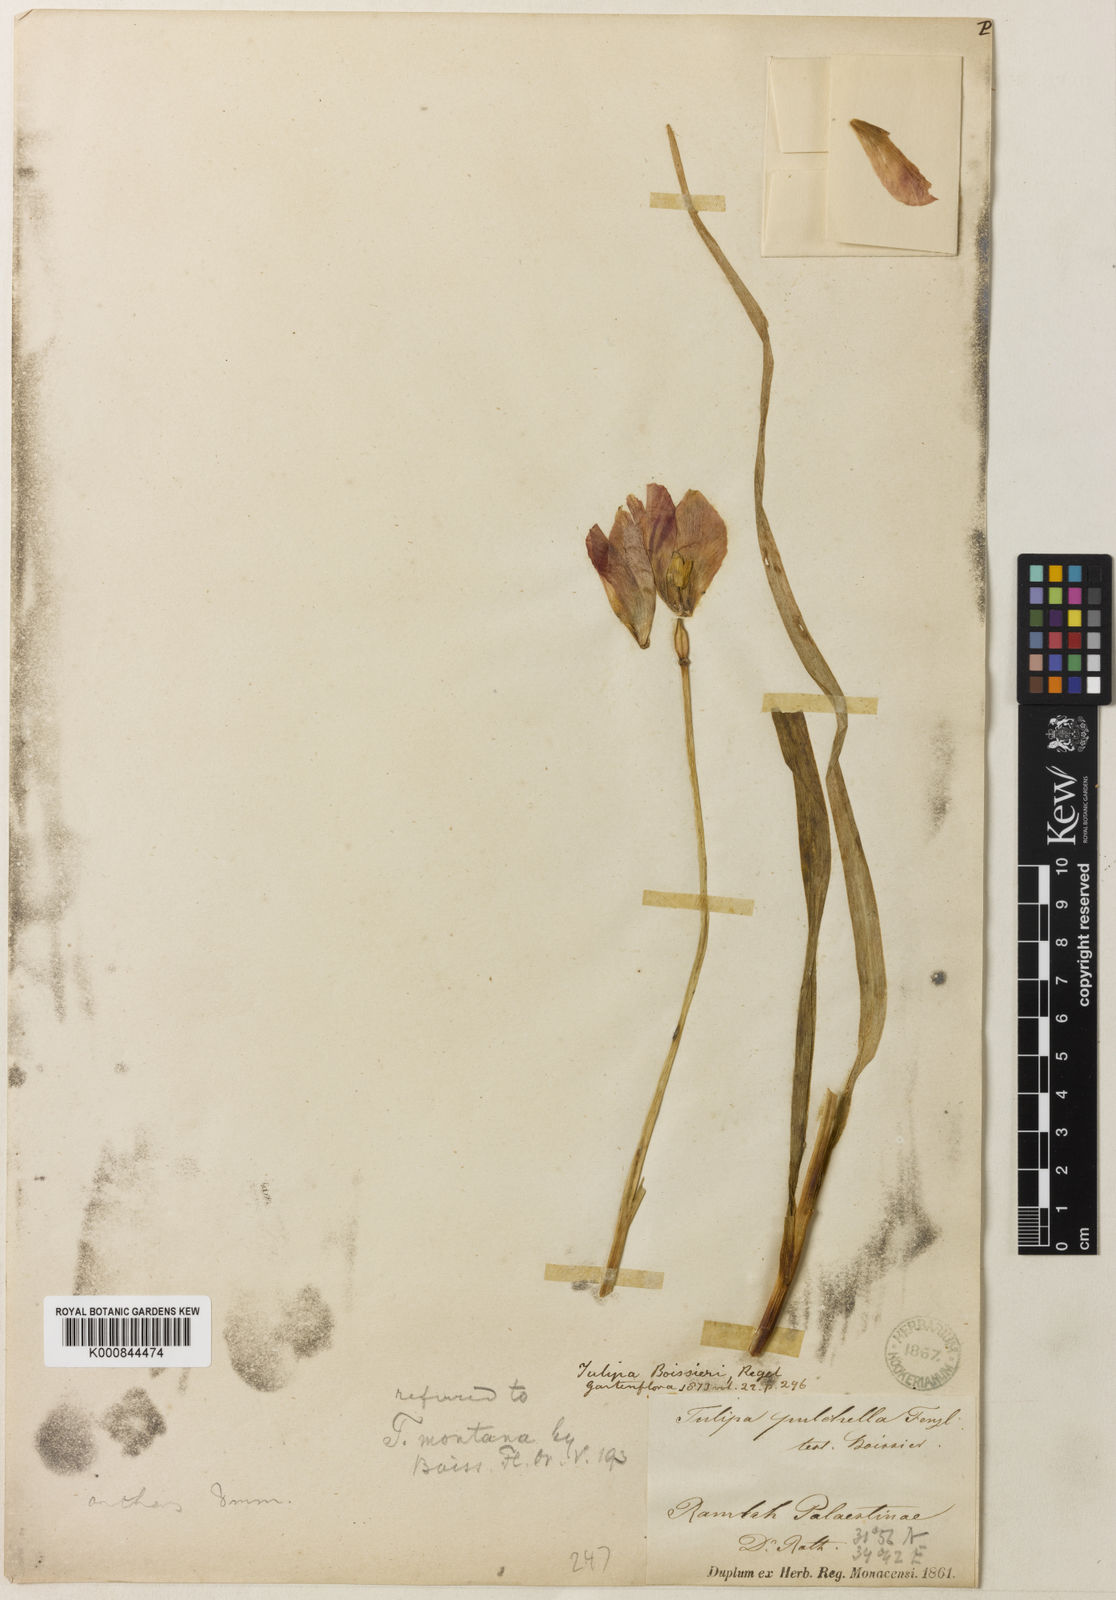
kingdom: Plantae
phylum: Tracheophyta
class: Liliopsida
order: Liliales
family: Liliaceae
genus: Tulipa
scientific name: Tulipa aleppensis
